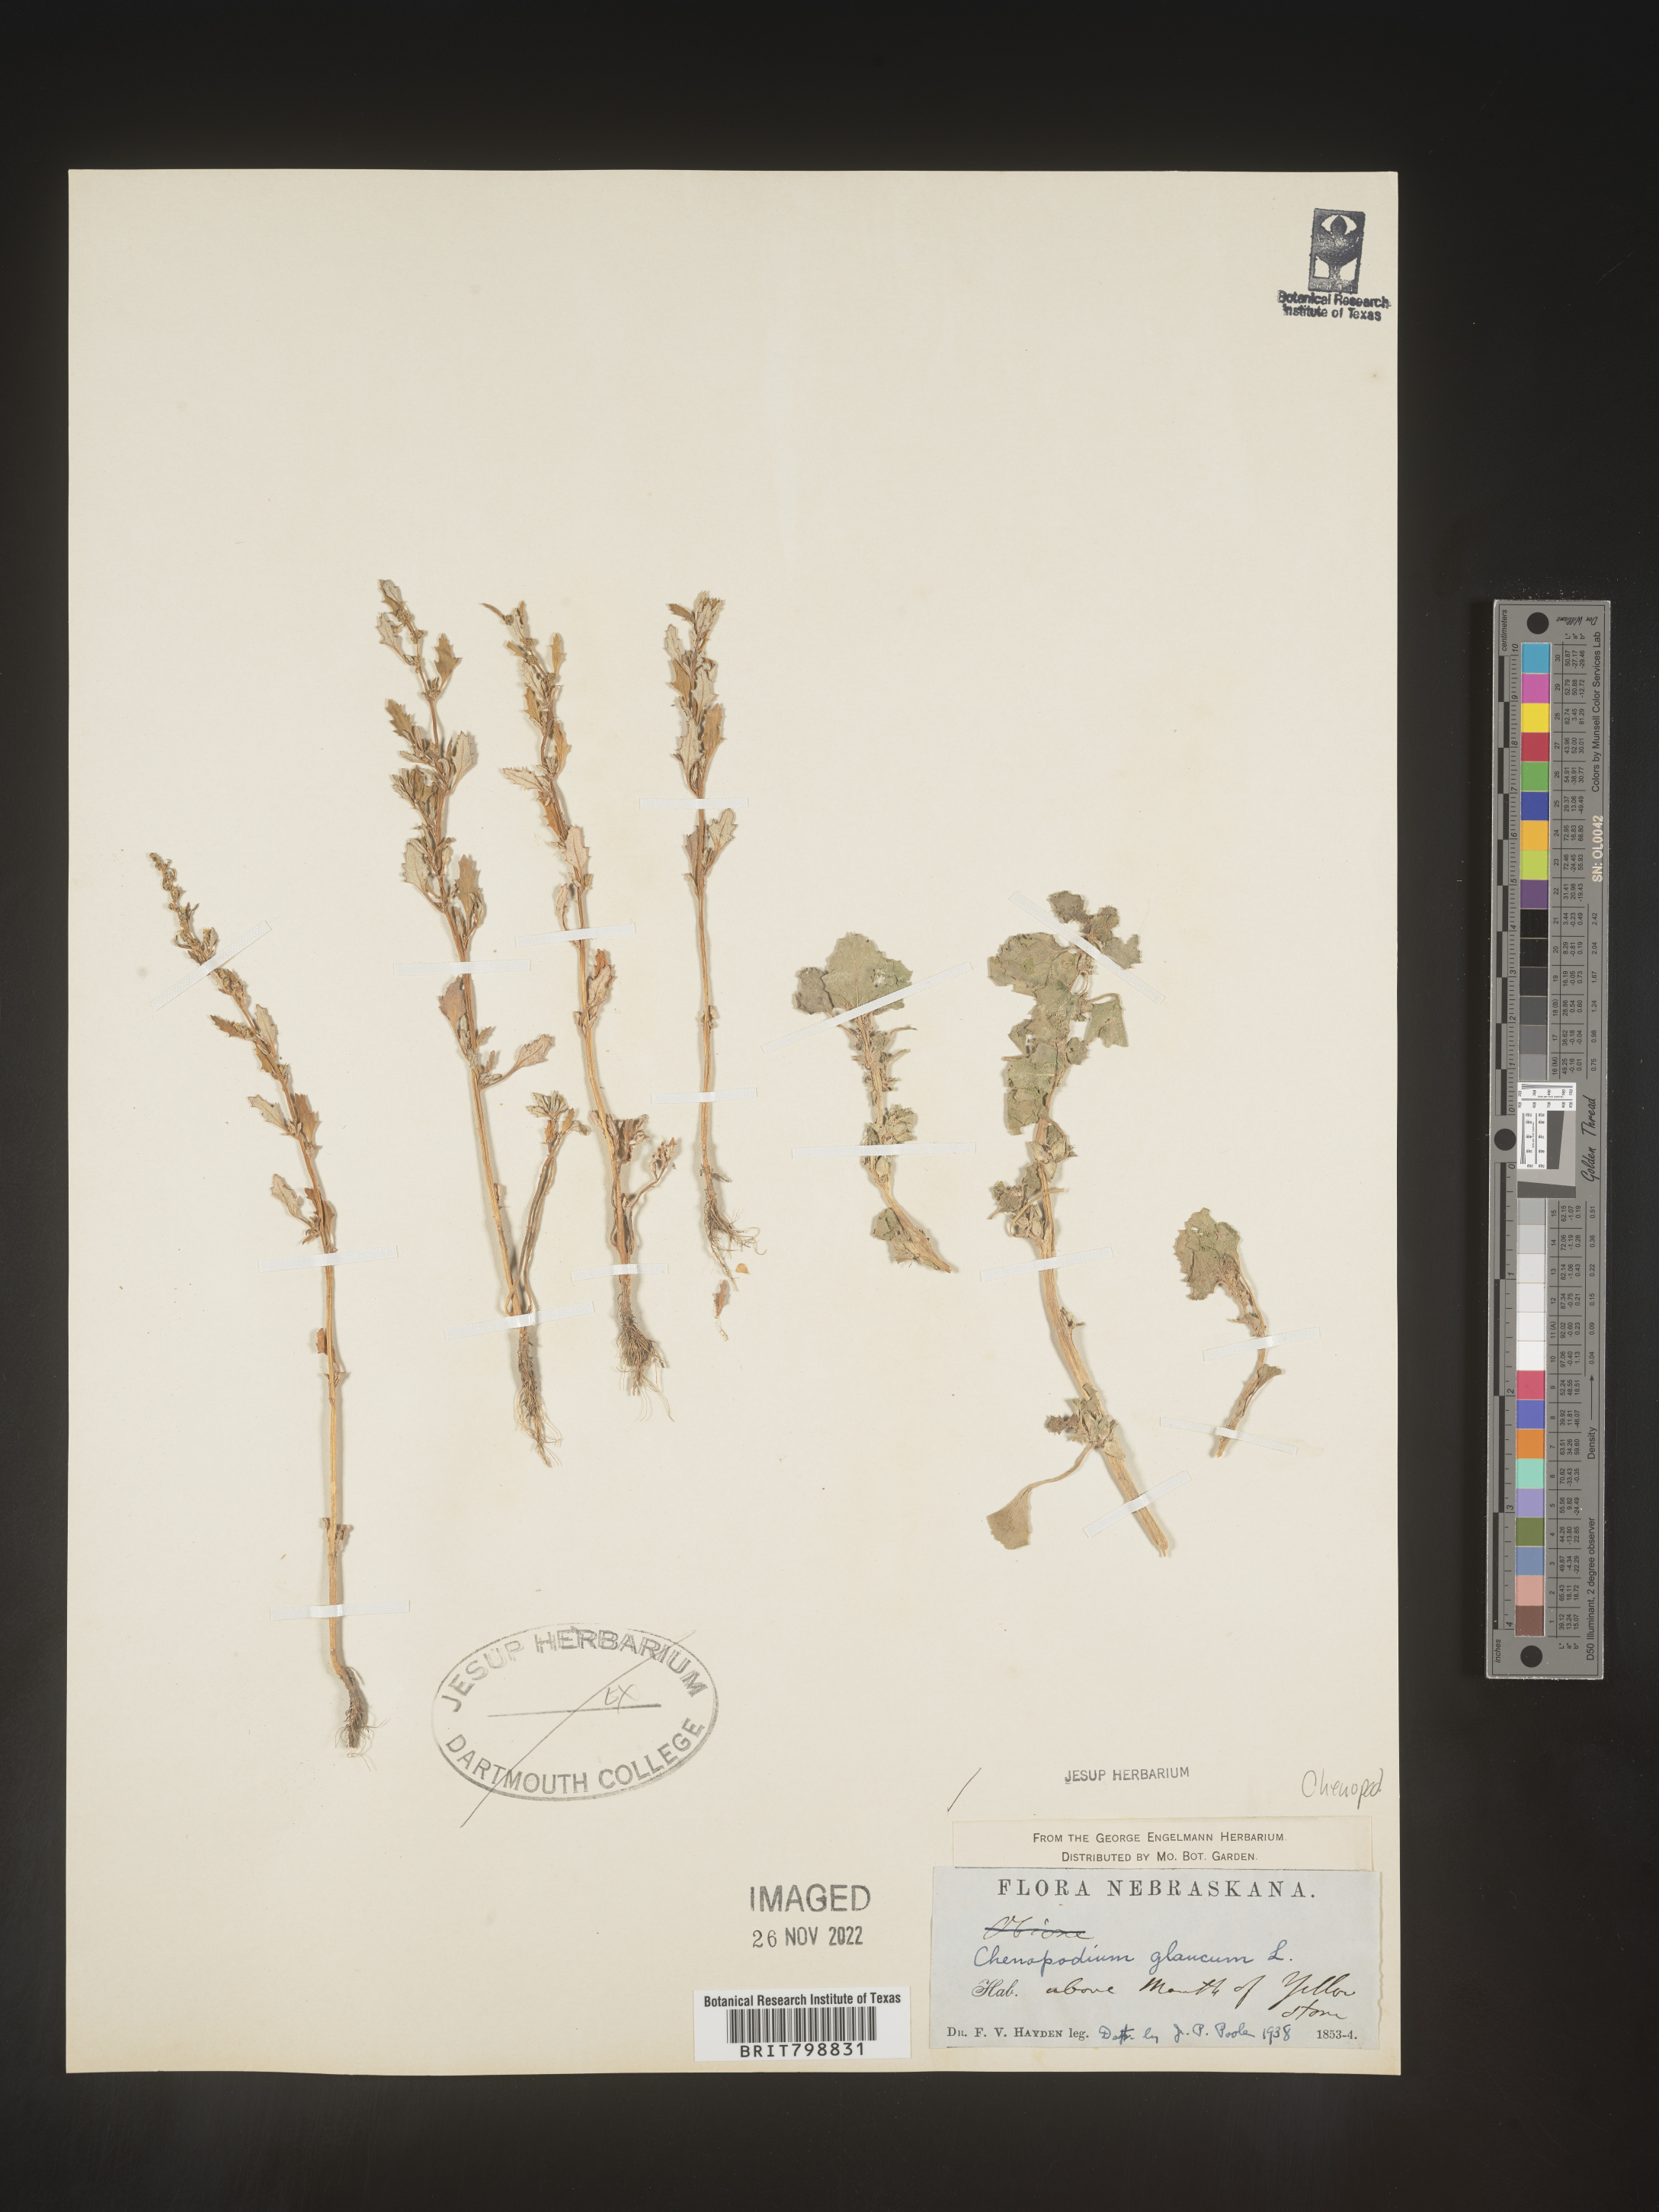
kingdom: Plantae
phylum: Tracheophyta
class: Magnoliopsida
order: Caryophyllales
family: Amaranthaceae
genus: Oxybasis
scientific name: Oxybasis glauca
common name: Glaucous goosefoot
